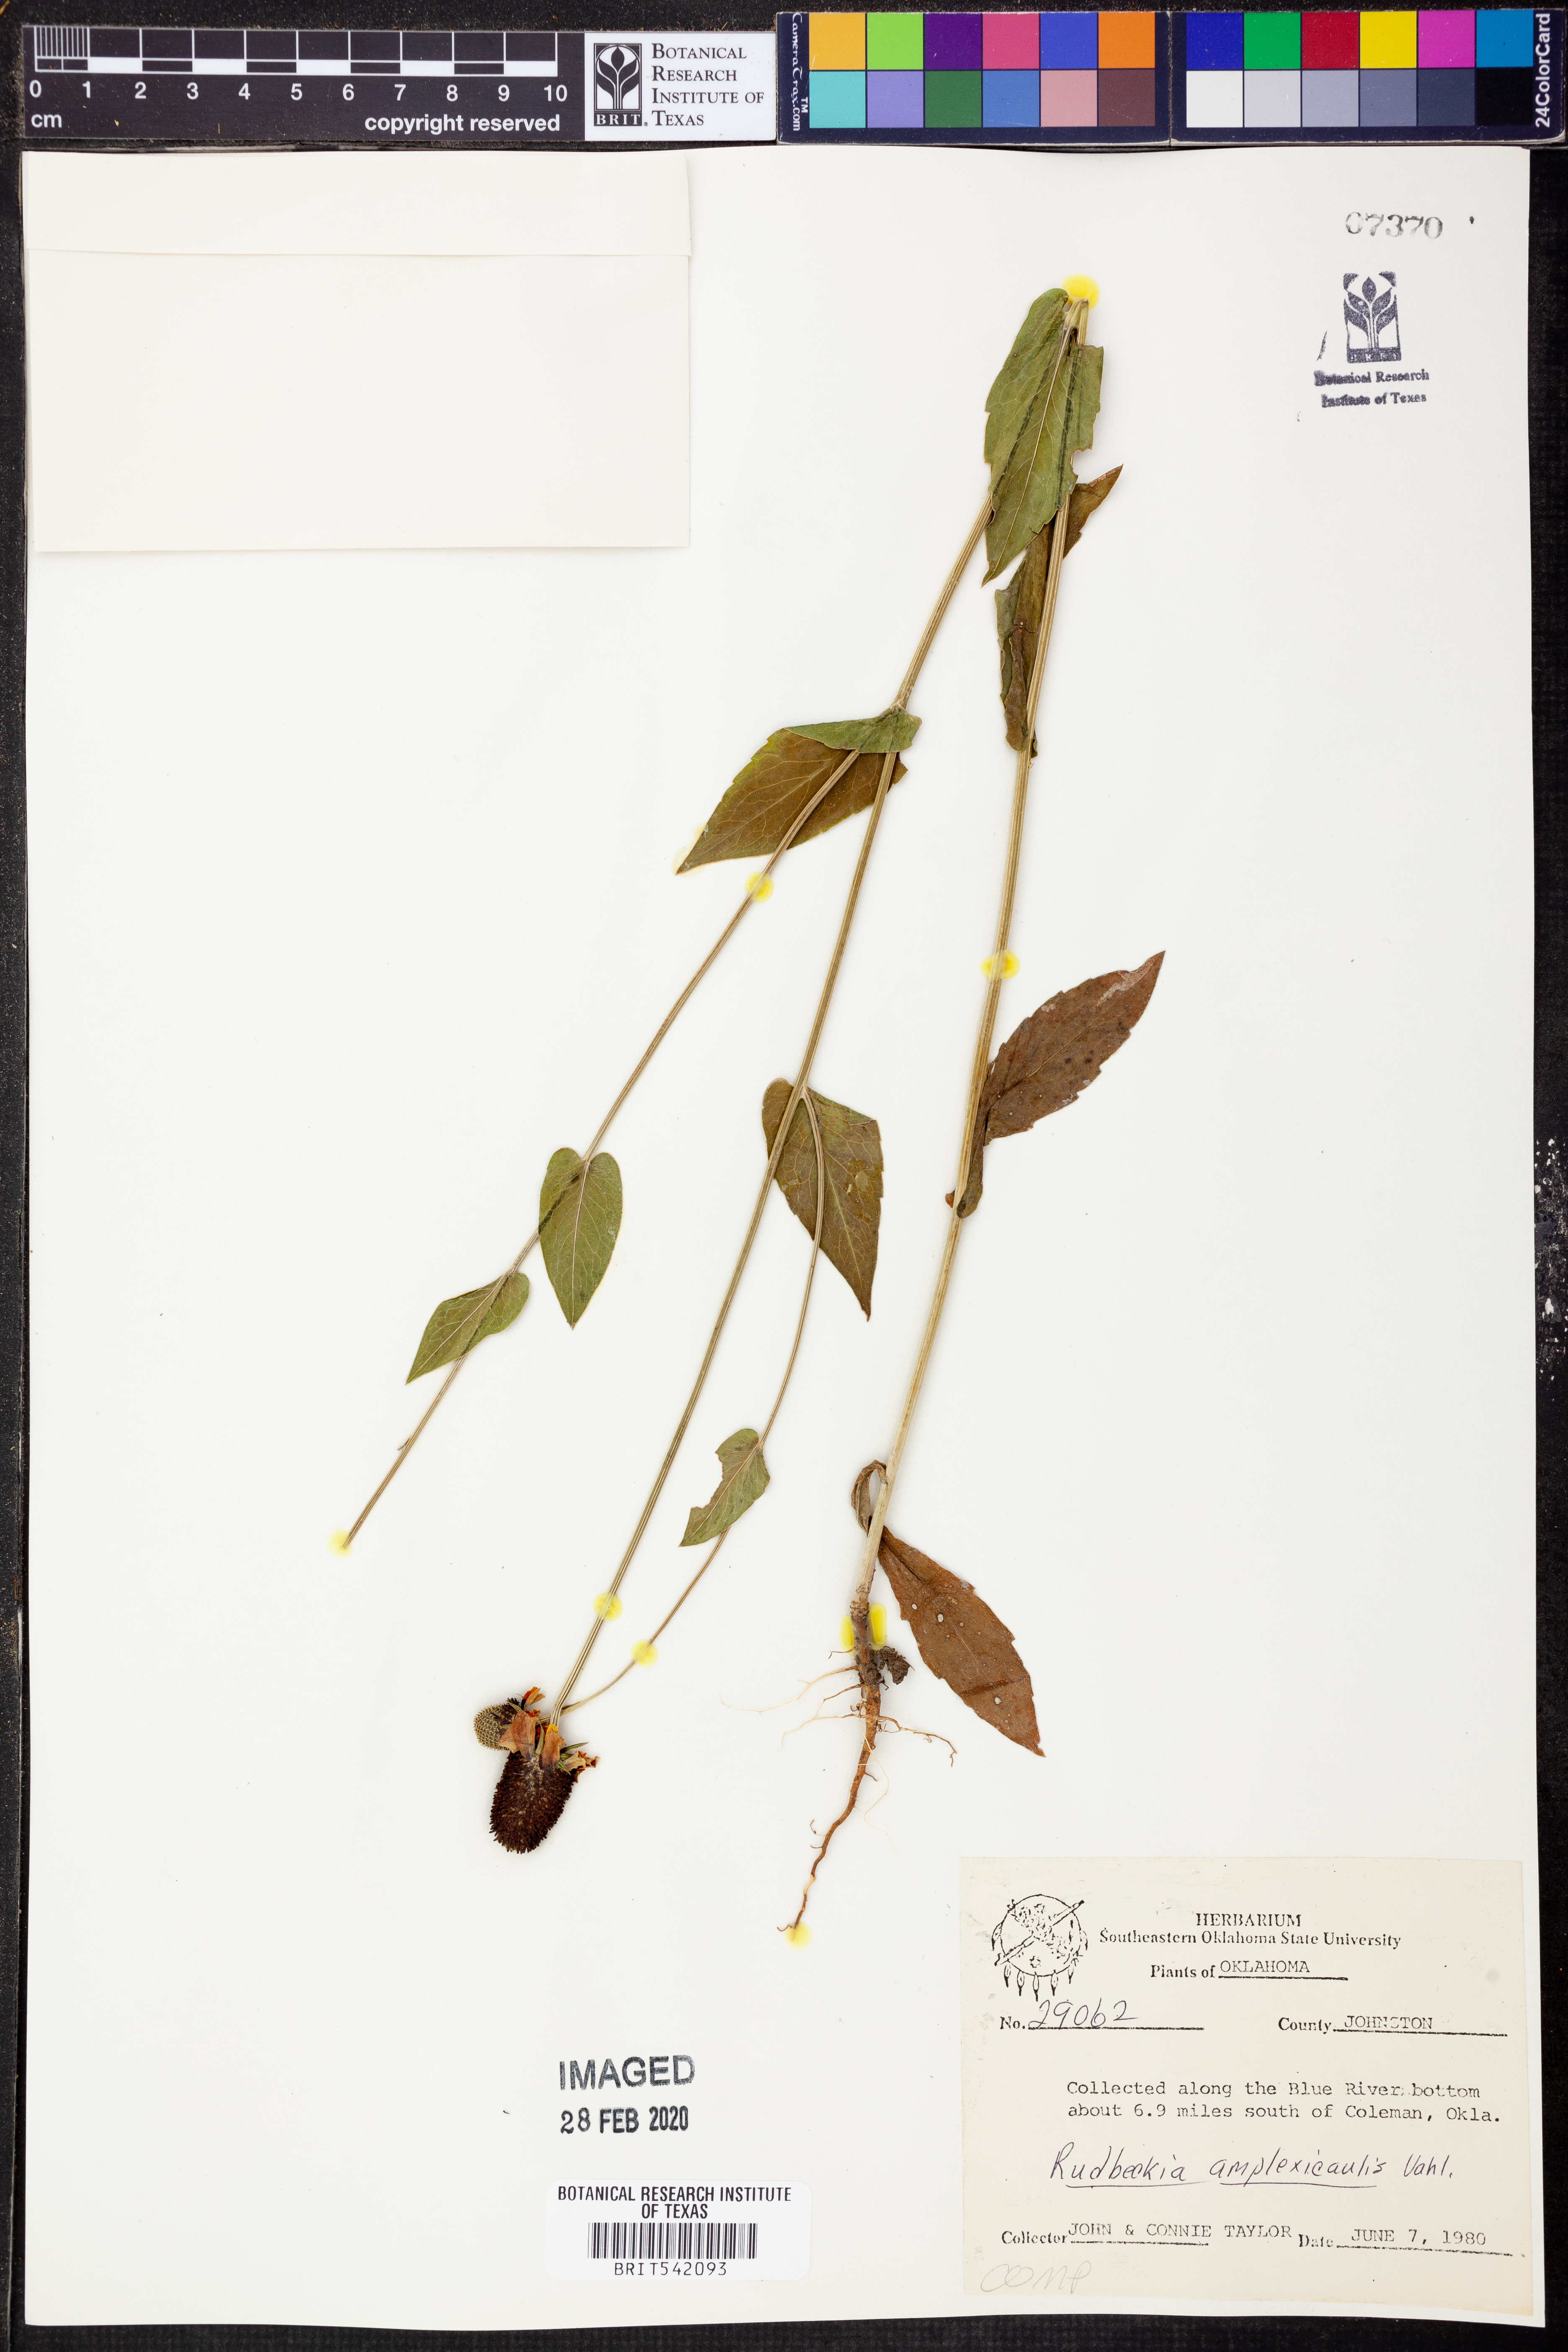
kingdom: Plantae
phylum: Tracheophyta
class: Magnoliopsida
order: Asterales
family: Asteraceae
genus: Rudbeckia
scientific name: Rudbeckia amplexicaulis
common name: Clasping-leaf coneflower
